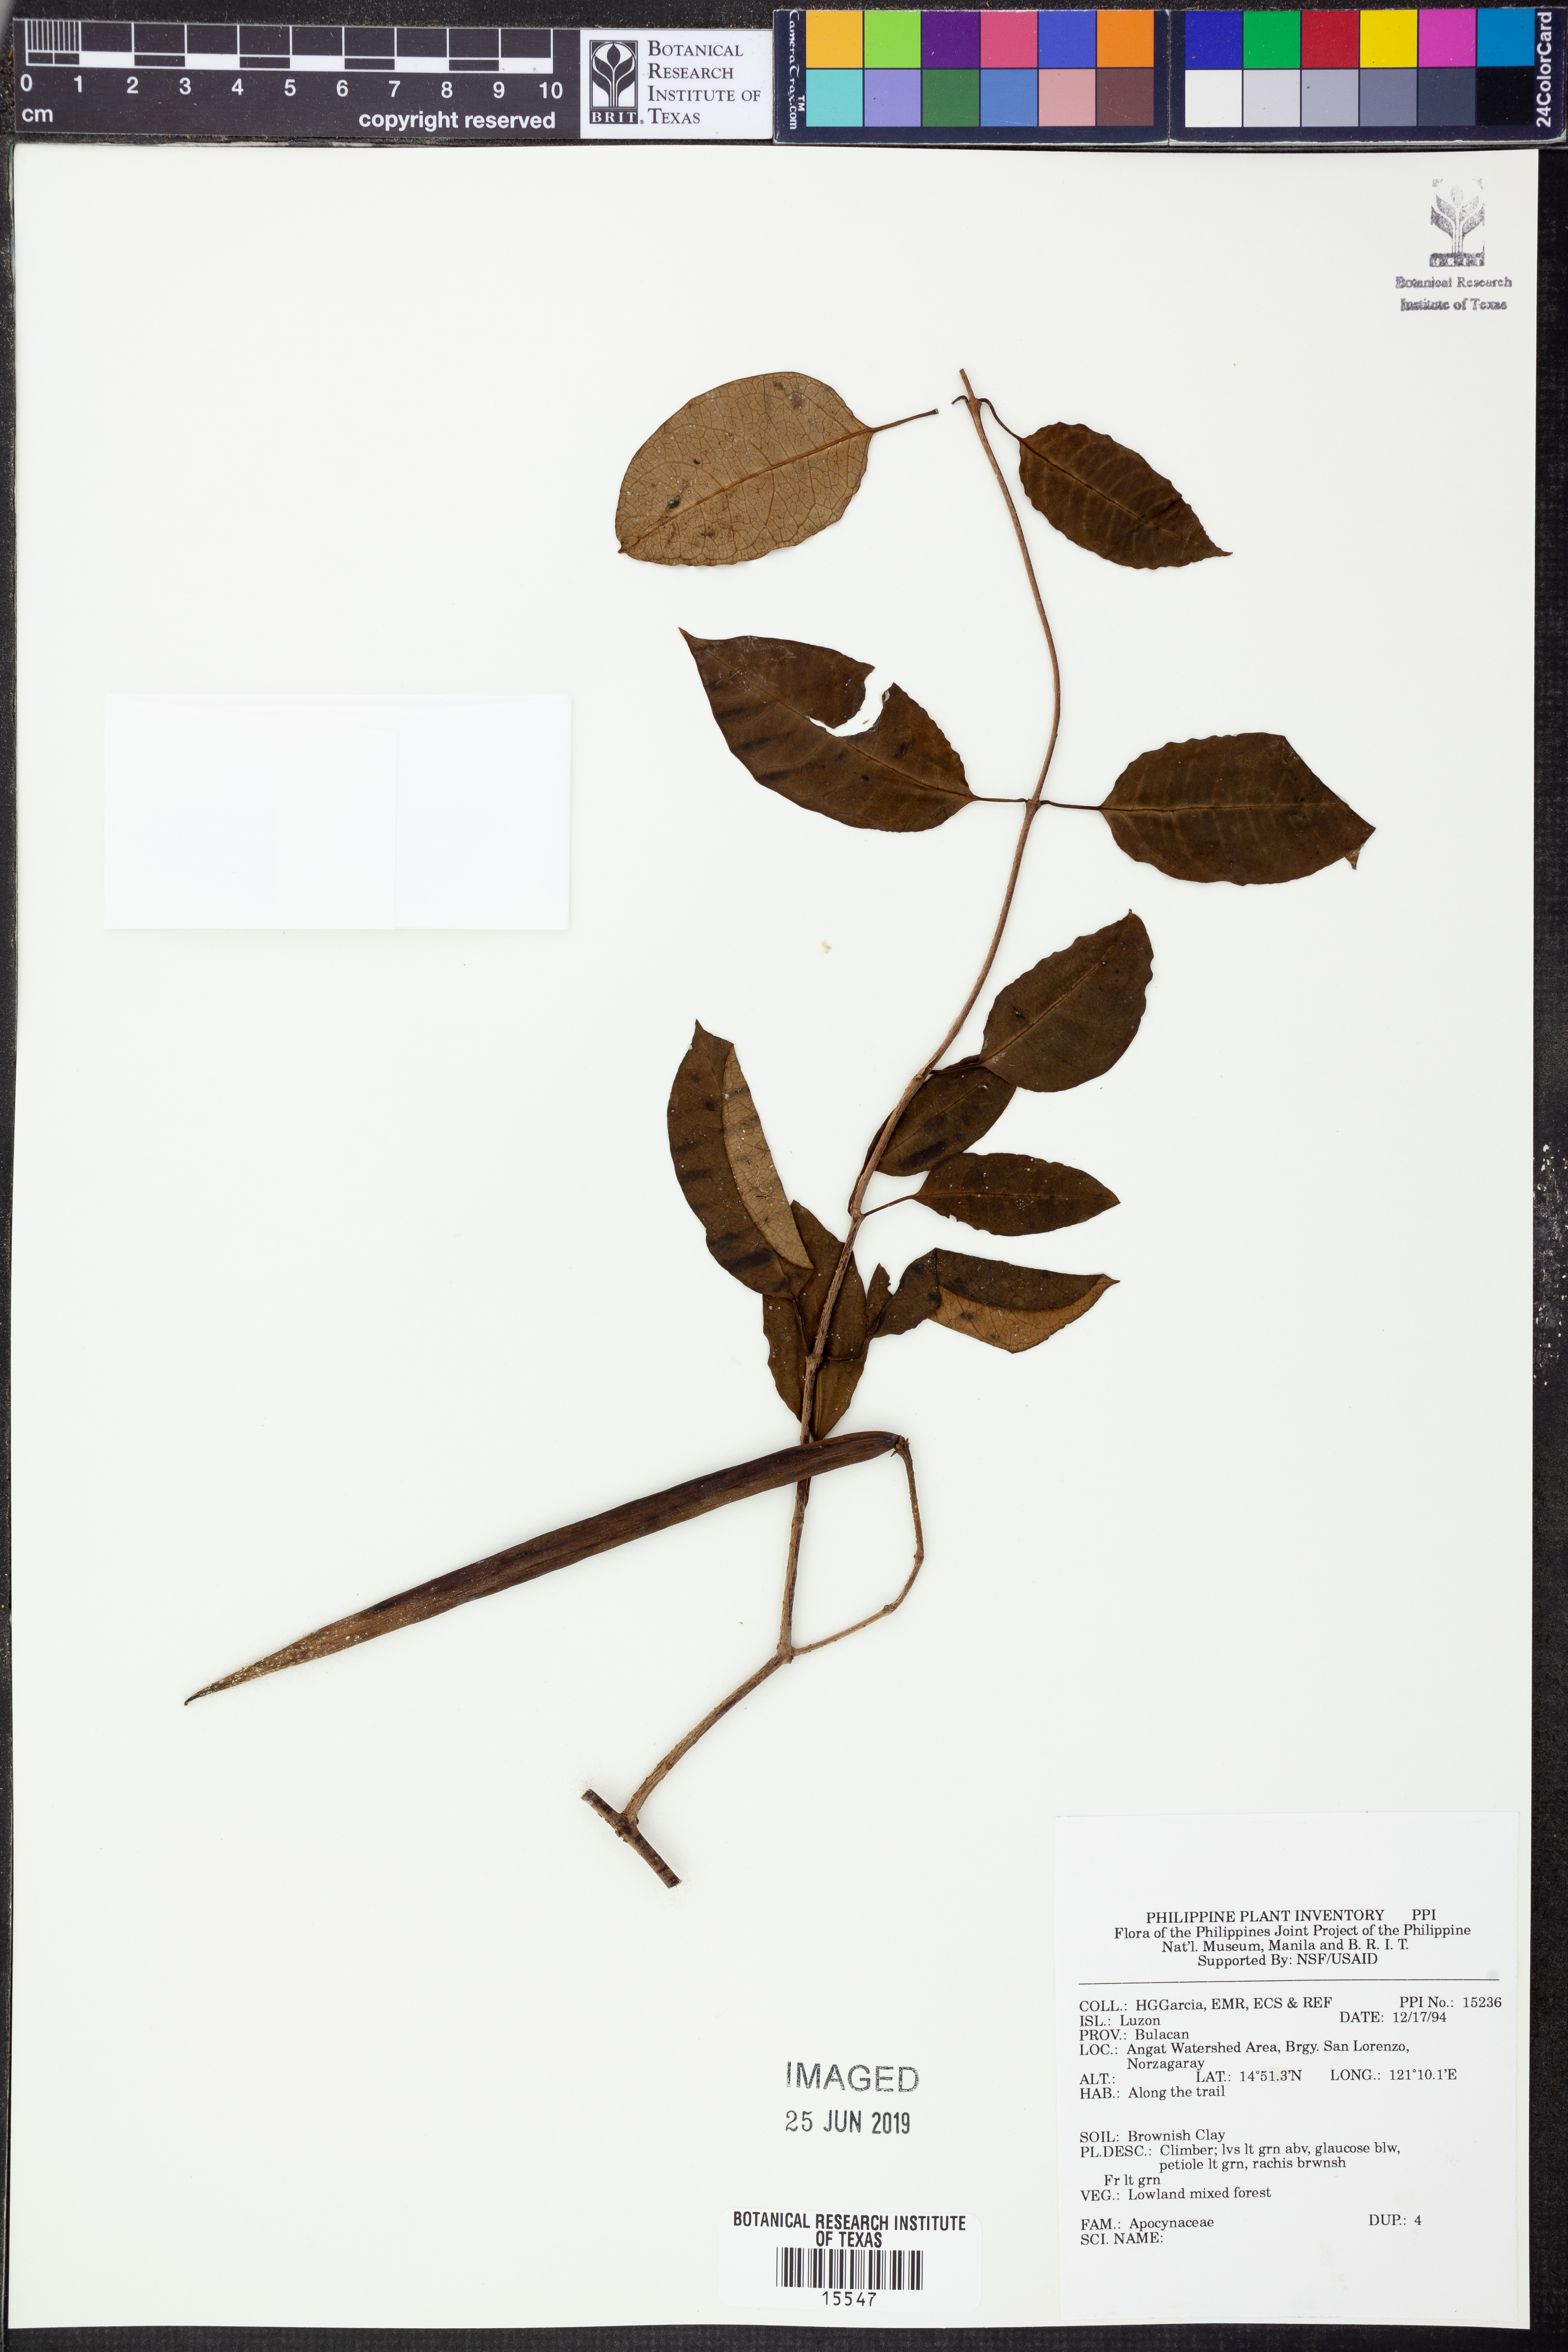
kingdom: Plantae
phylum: Tracheophyta
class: Magnoliopsida
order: Gentianales
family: Apocynaceae
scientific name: Apocynaceae
